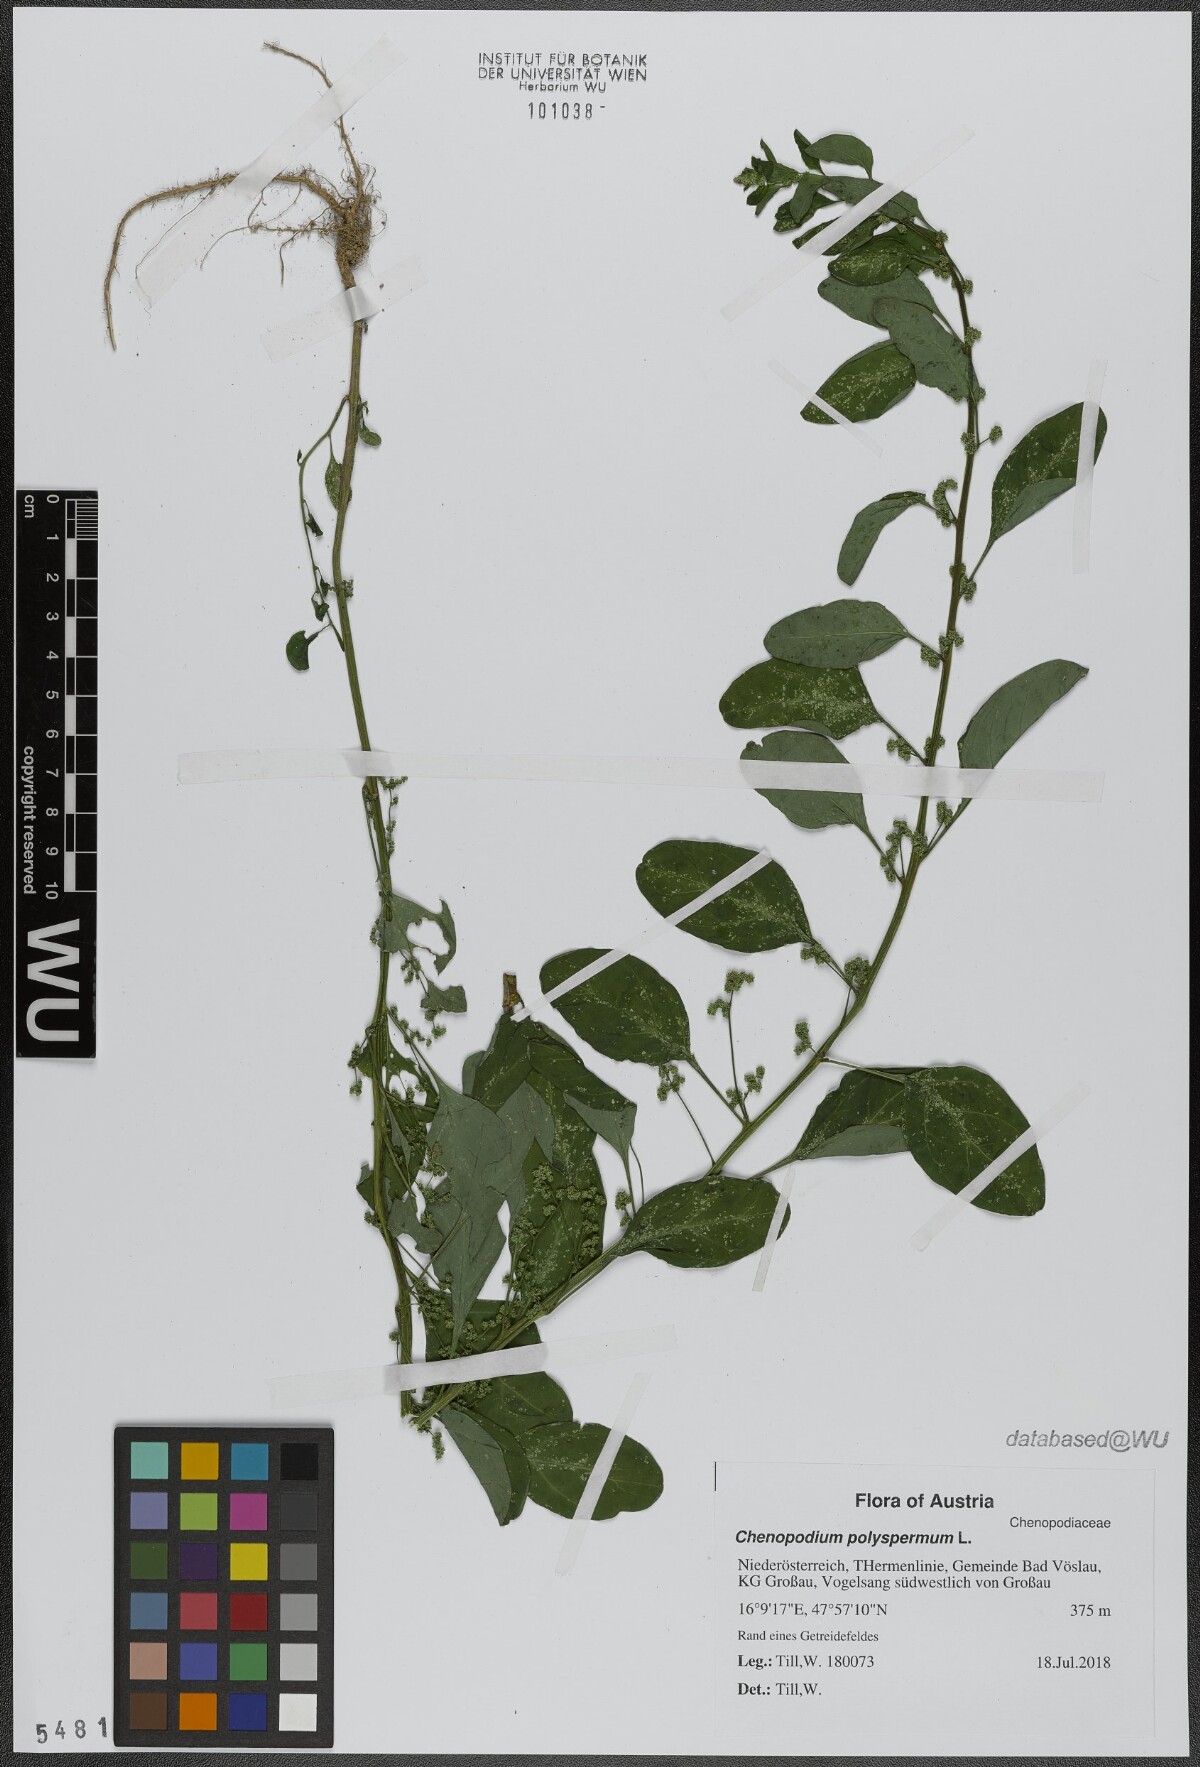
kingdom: Plantae
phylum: Tracheophyta
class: Magnoliopsida
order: Caryophyllales
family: Amaranthaceae
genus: Lipandra
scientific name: Lipandra polysperma
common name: Many-seed goosefoot
